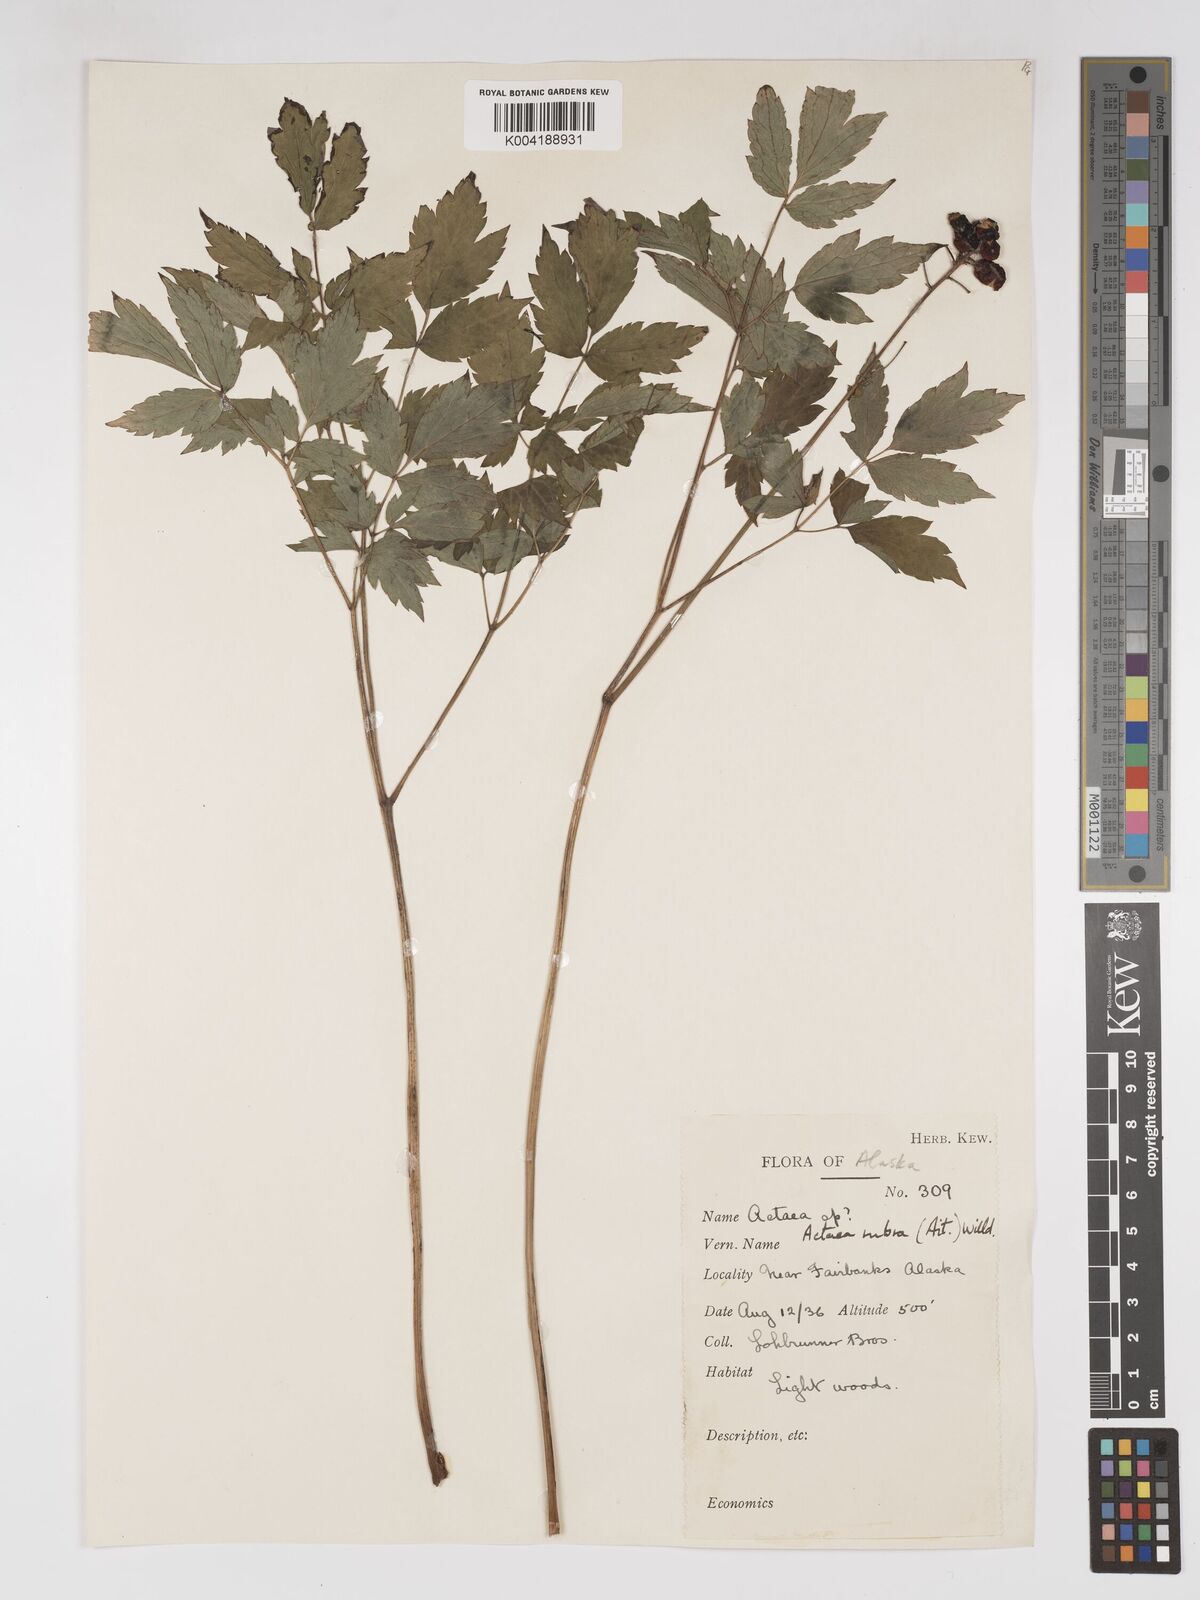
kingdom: Plantae
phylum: Tracheophyta
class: Magnoliopsida
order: Ranunculales
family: Ranunculaceae
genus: Actaea
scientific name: Actaea rubra
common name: Red baneberry
